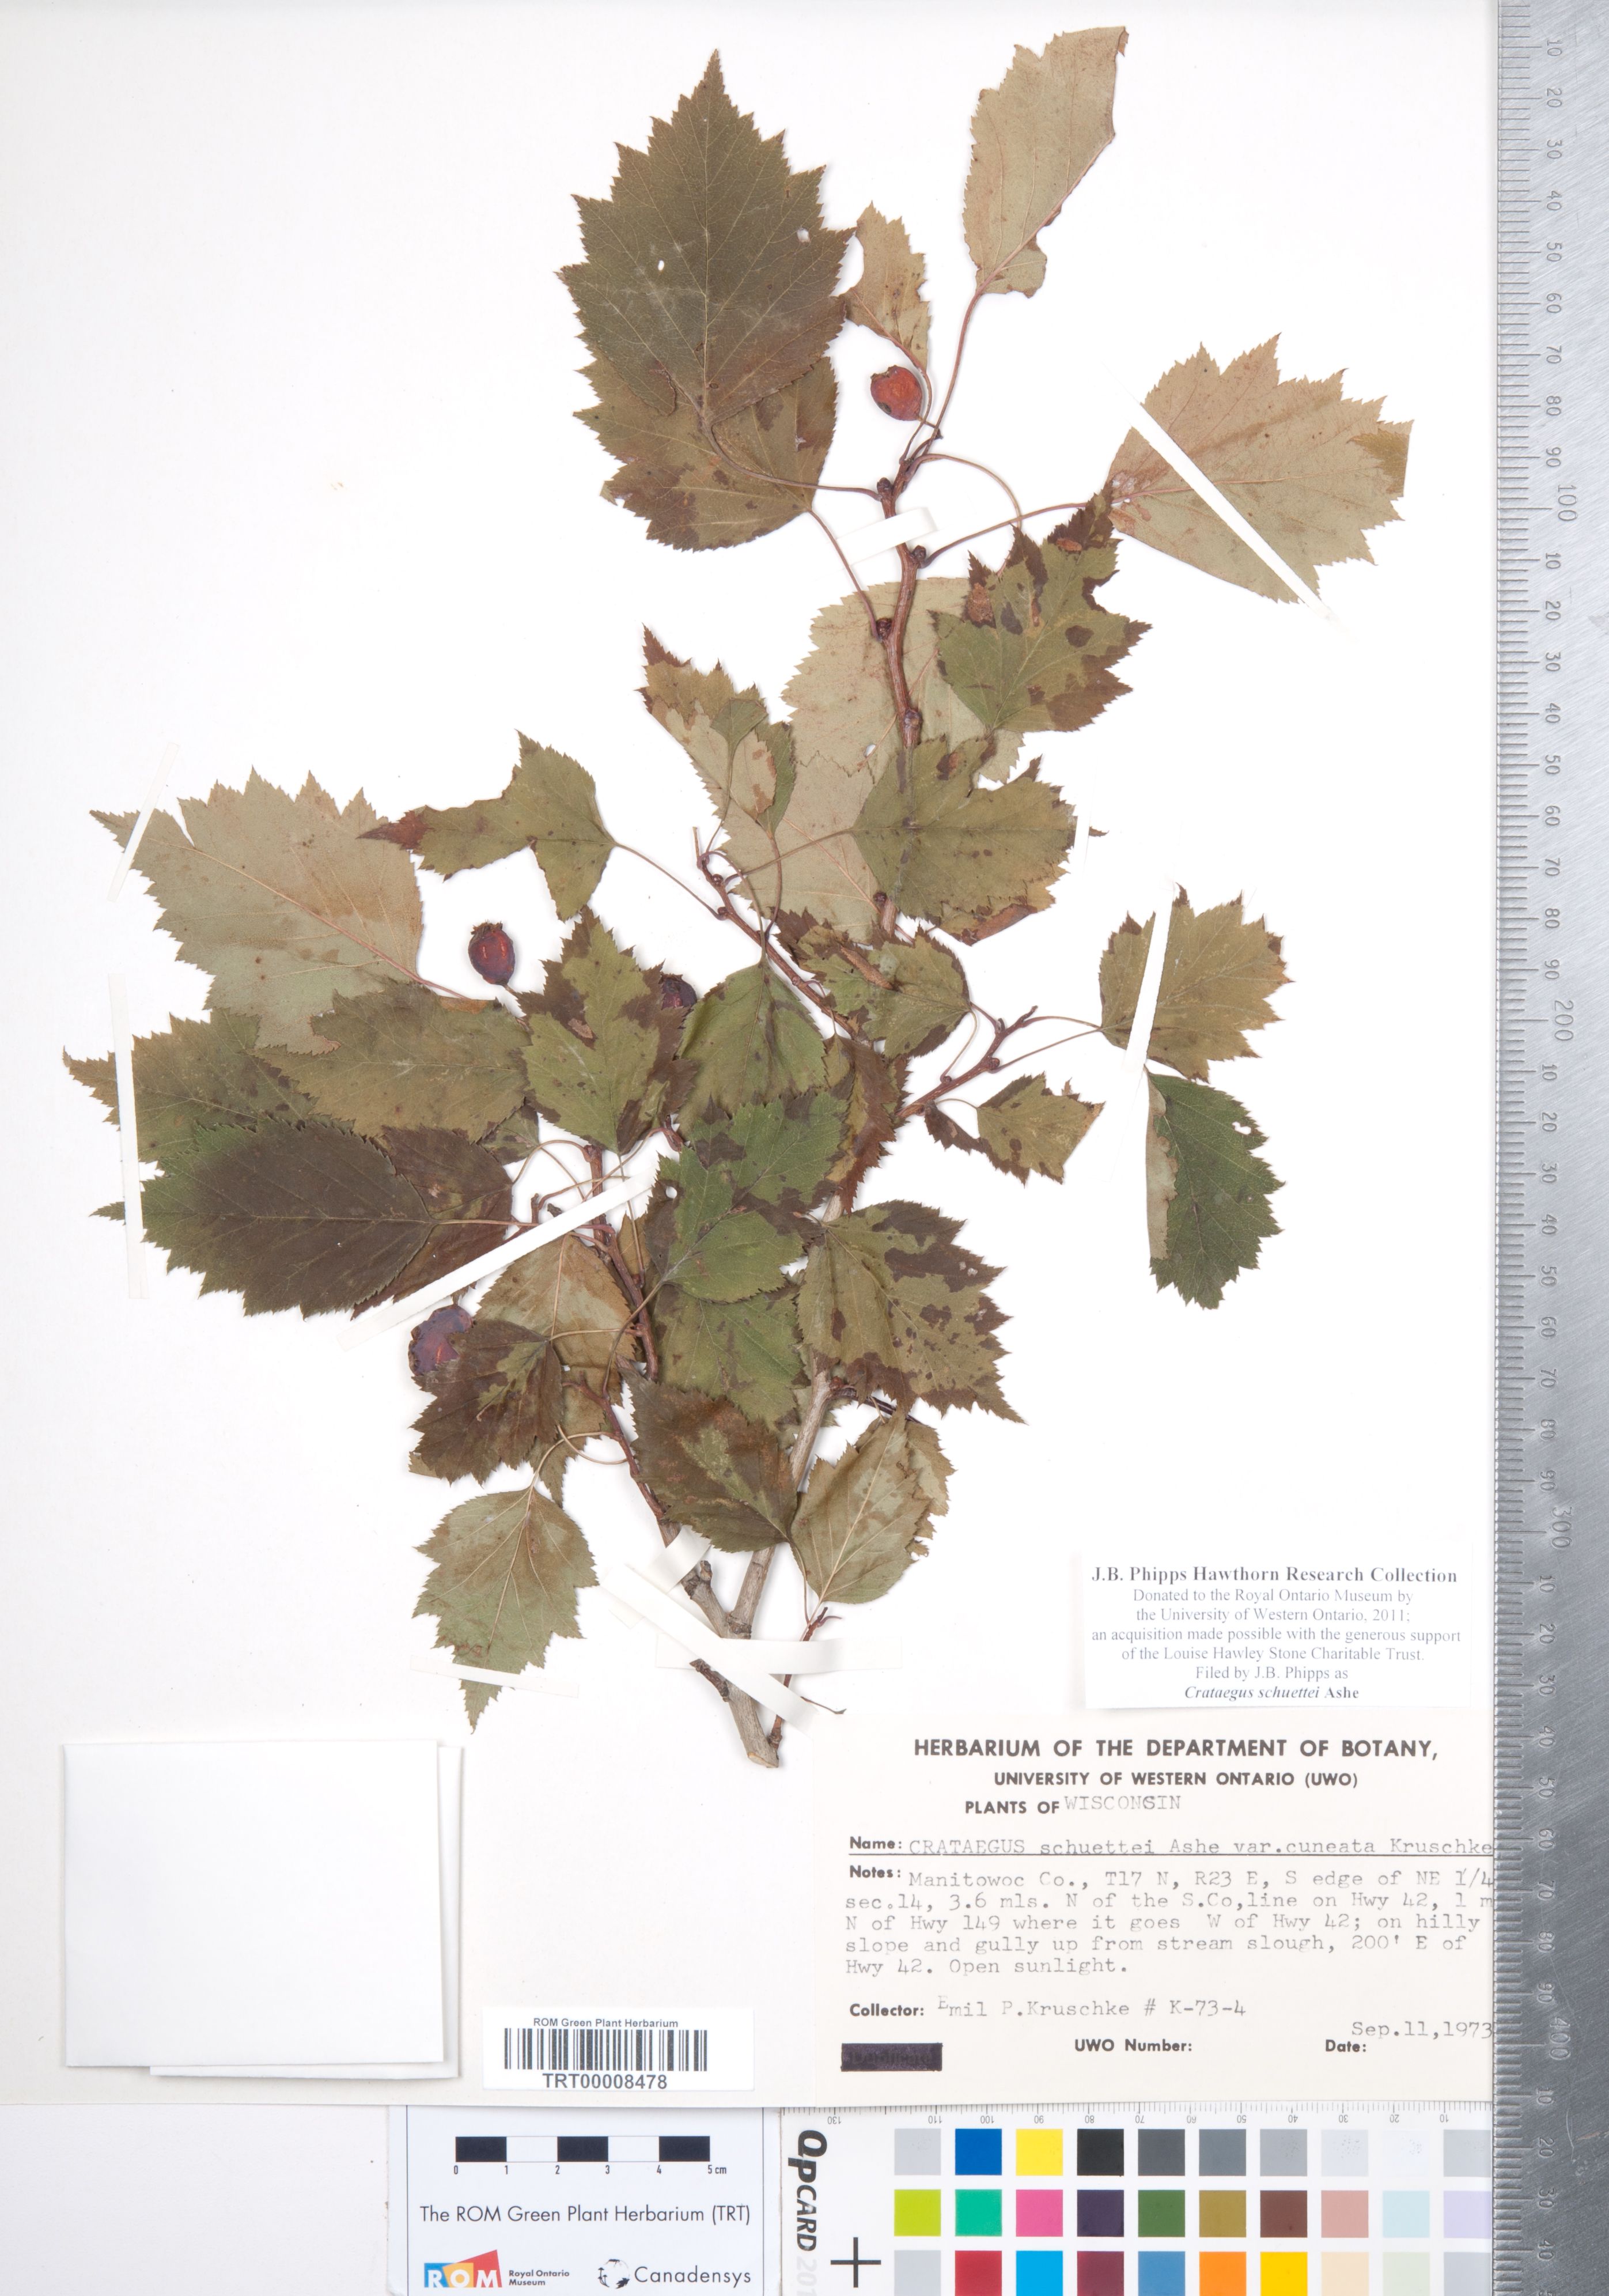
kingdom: Plantae
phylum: Tracheophyta
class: Magnoliopsida
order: Rosales
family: Rosaceae
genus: Crataegus
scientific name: Crataegus schuettei
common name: Schuette's hawthorn
